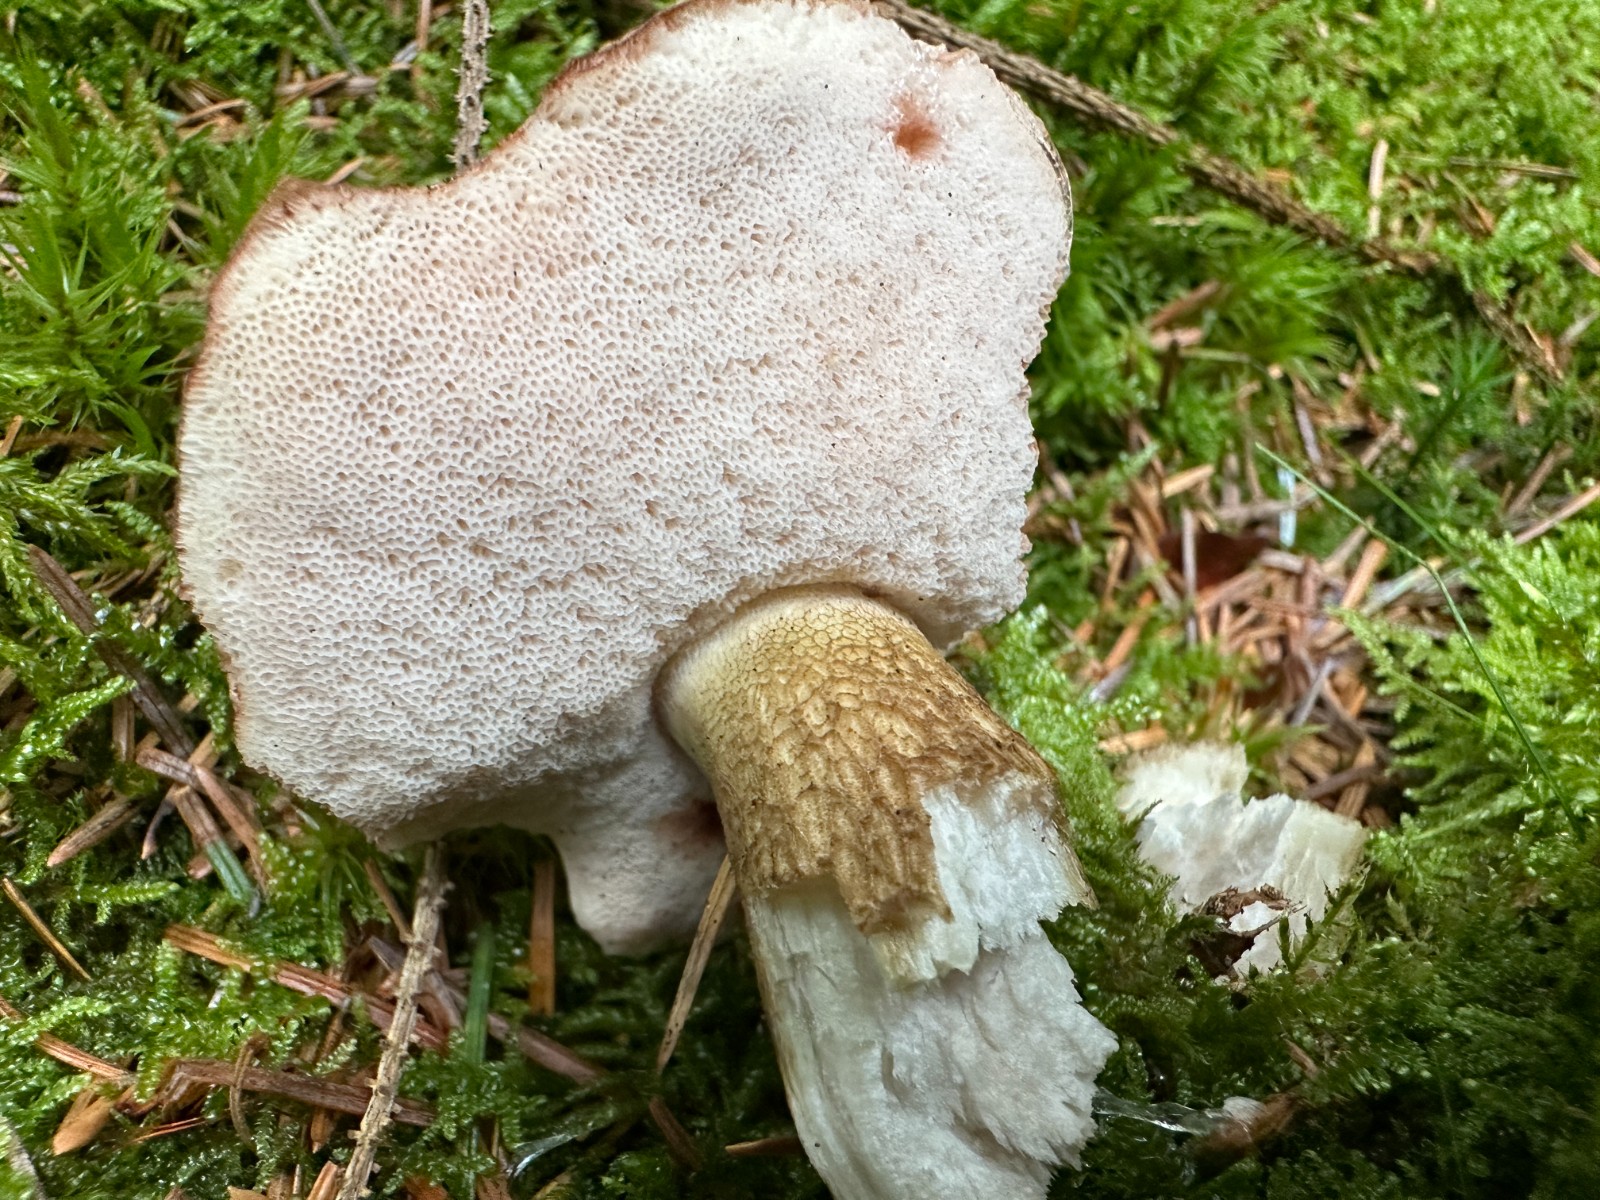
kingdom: Fungi
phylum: Basidiomycota
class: Agaricomycetes
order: Boletales
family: Boletaceae
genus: Tylopilus
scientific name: Tylopilus felleus
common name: galderørhat
